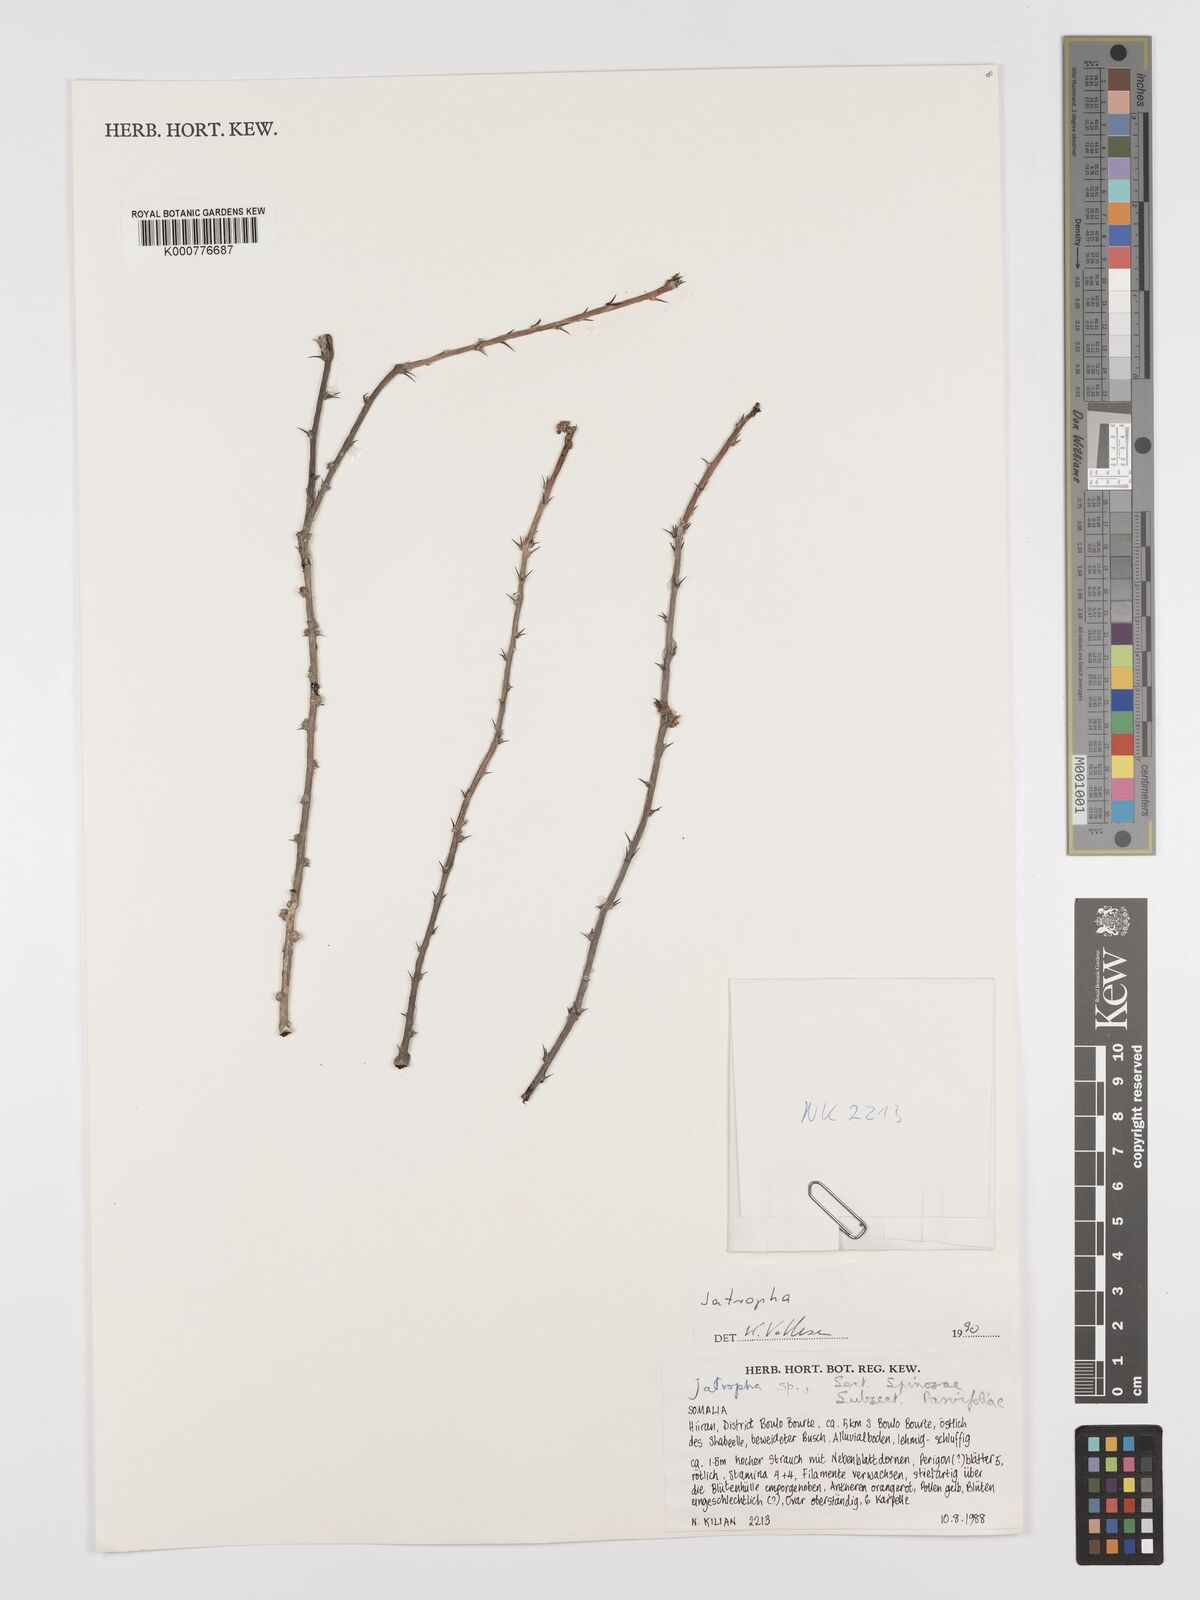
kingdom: Plantae
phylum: Tracheophyta
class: Magnoliopsida
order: Malpighiales
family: Euphorbiaceae
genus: Jatropha
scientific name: Jatropha spinosa
